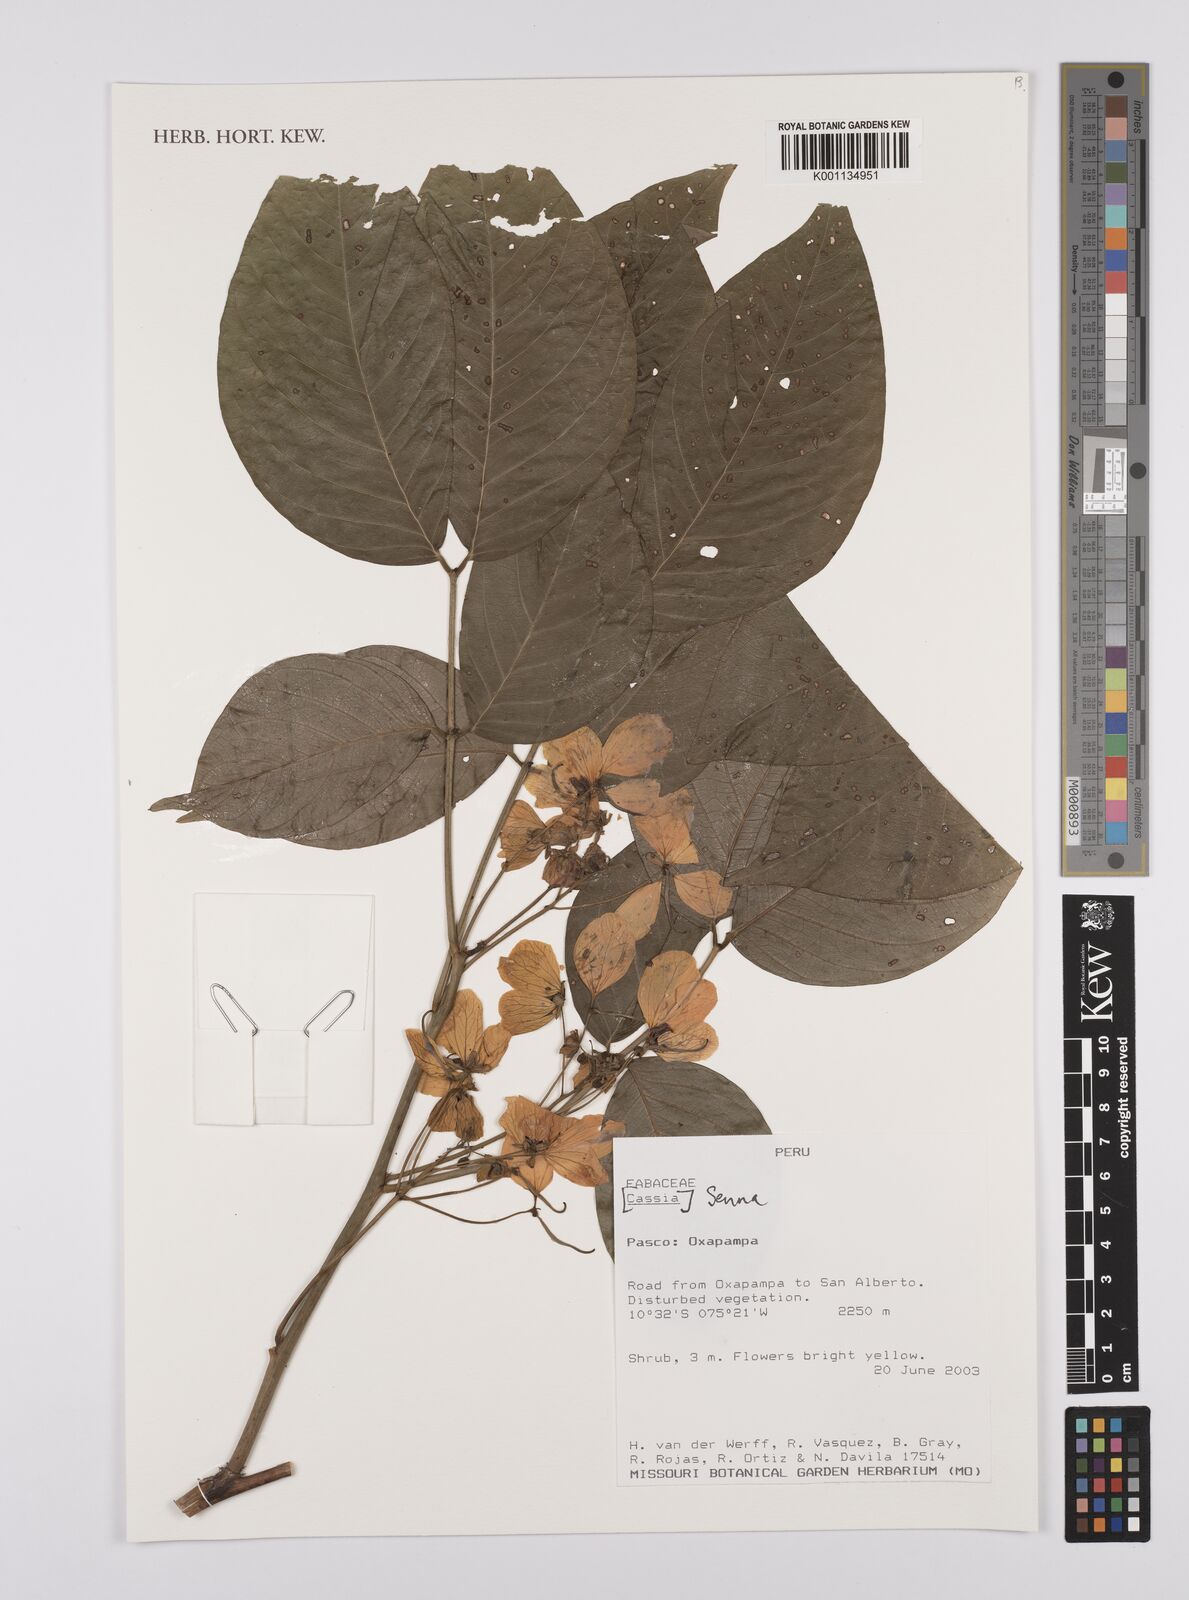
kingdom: Plantae
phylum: Tracheophyta
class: Magnoliopsida
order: Fabales
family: Fabaceae
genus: Senna
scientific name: Senna obliqua
